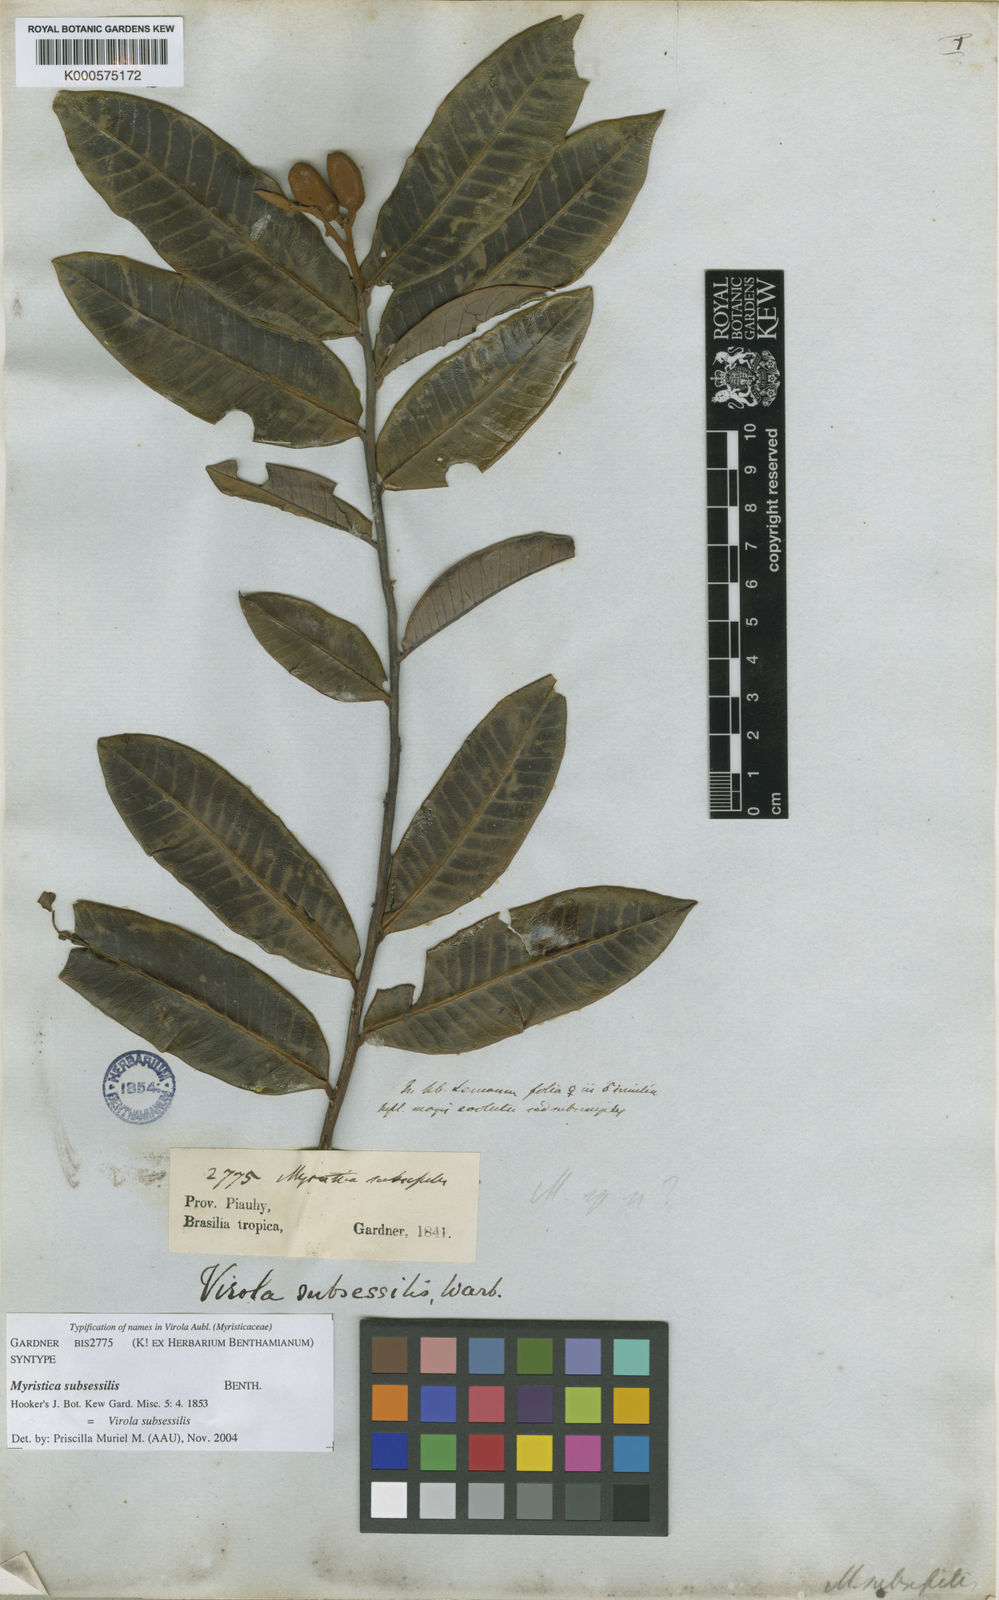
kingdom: Plantae
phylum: Tracheophyta
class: Magnoliopsida
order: Magnoliales
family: Myristicaceae
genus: Virola
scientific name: Virola subsessilis
